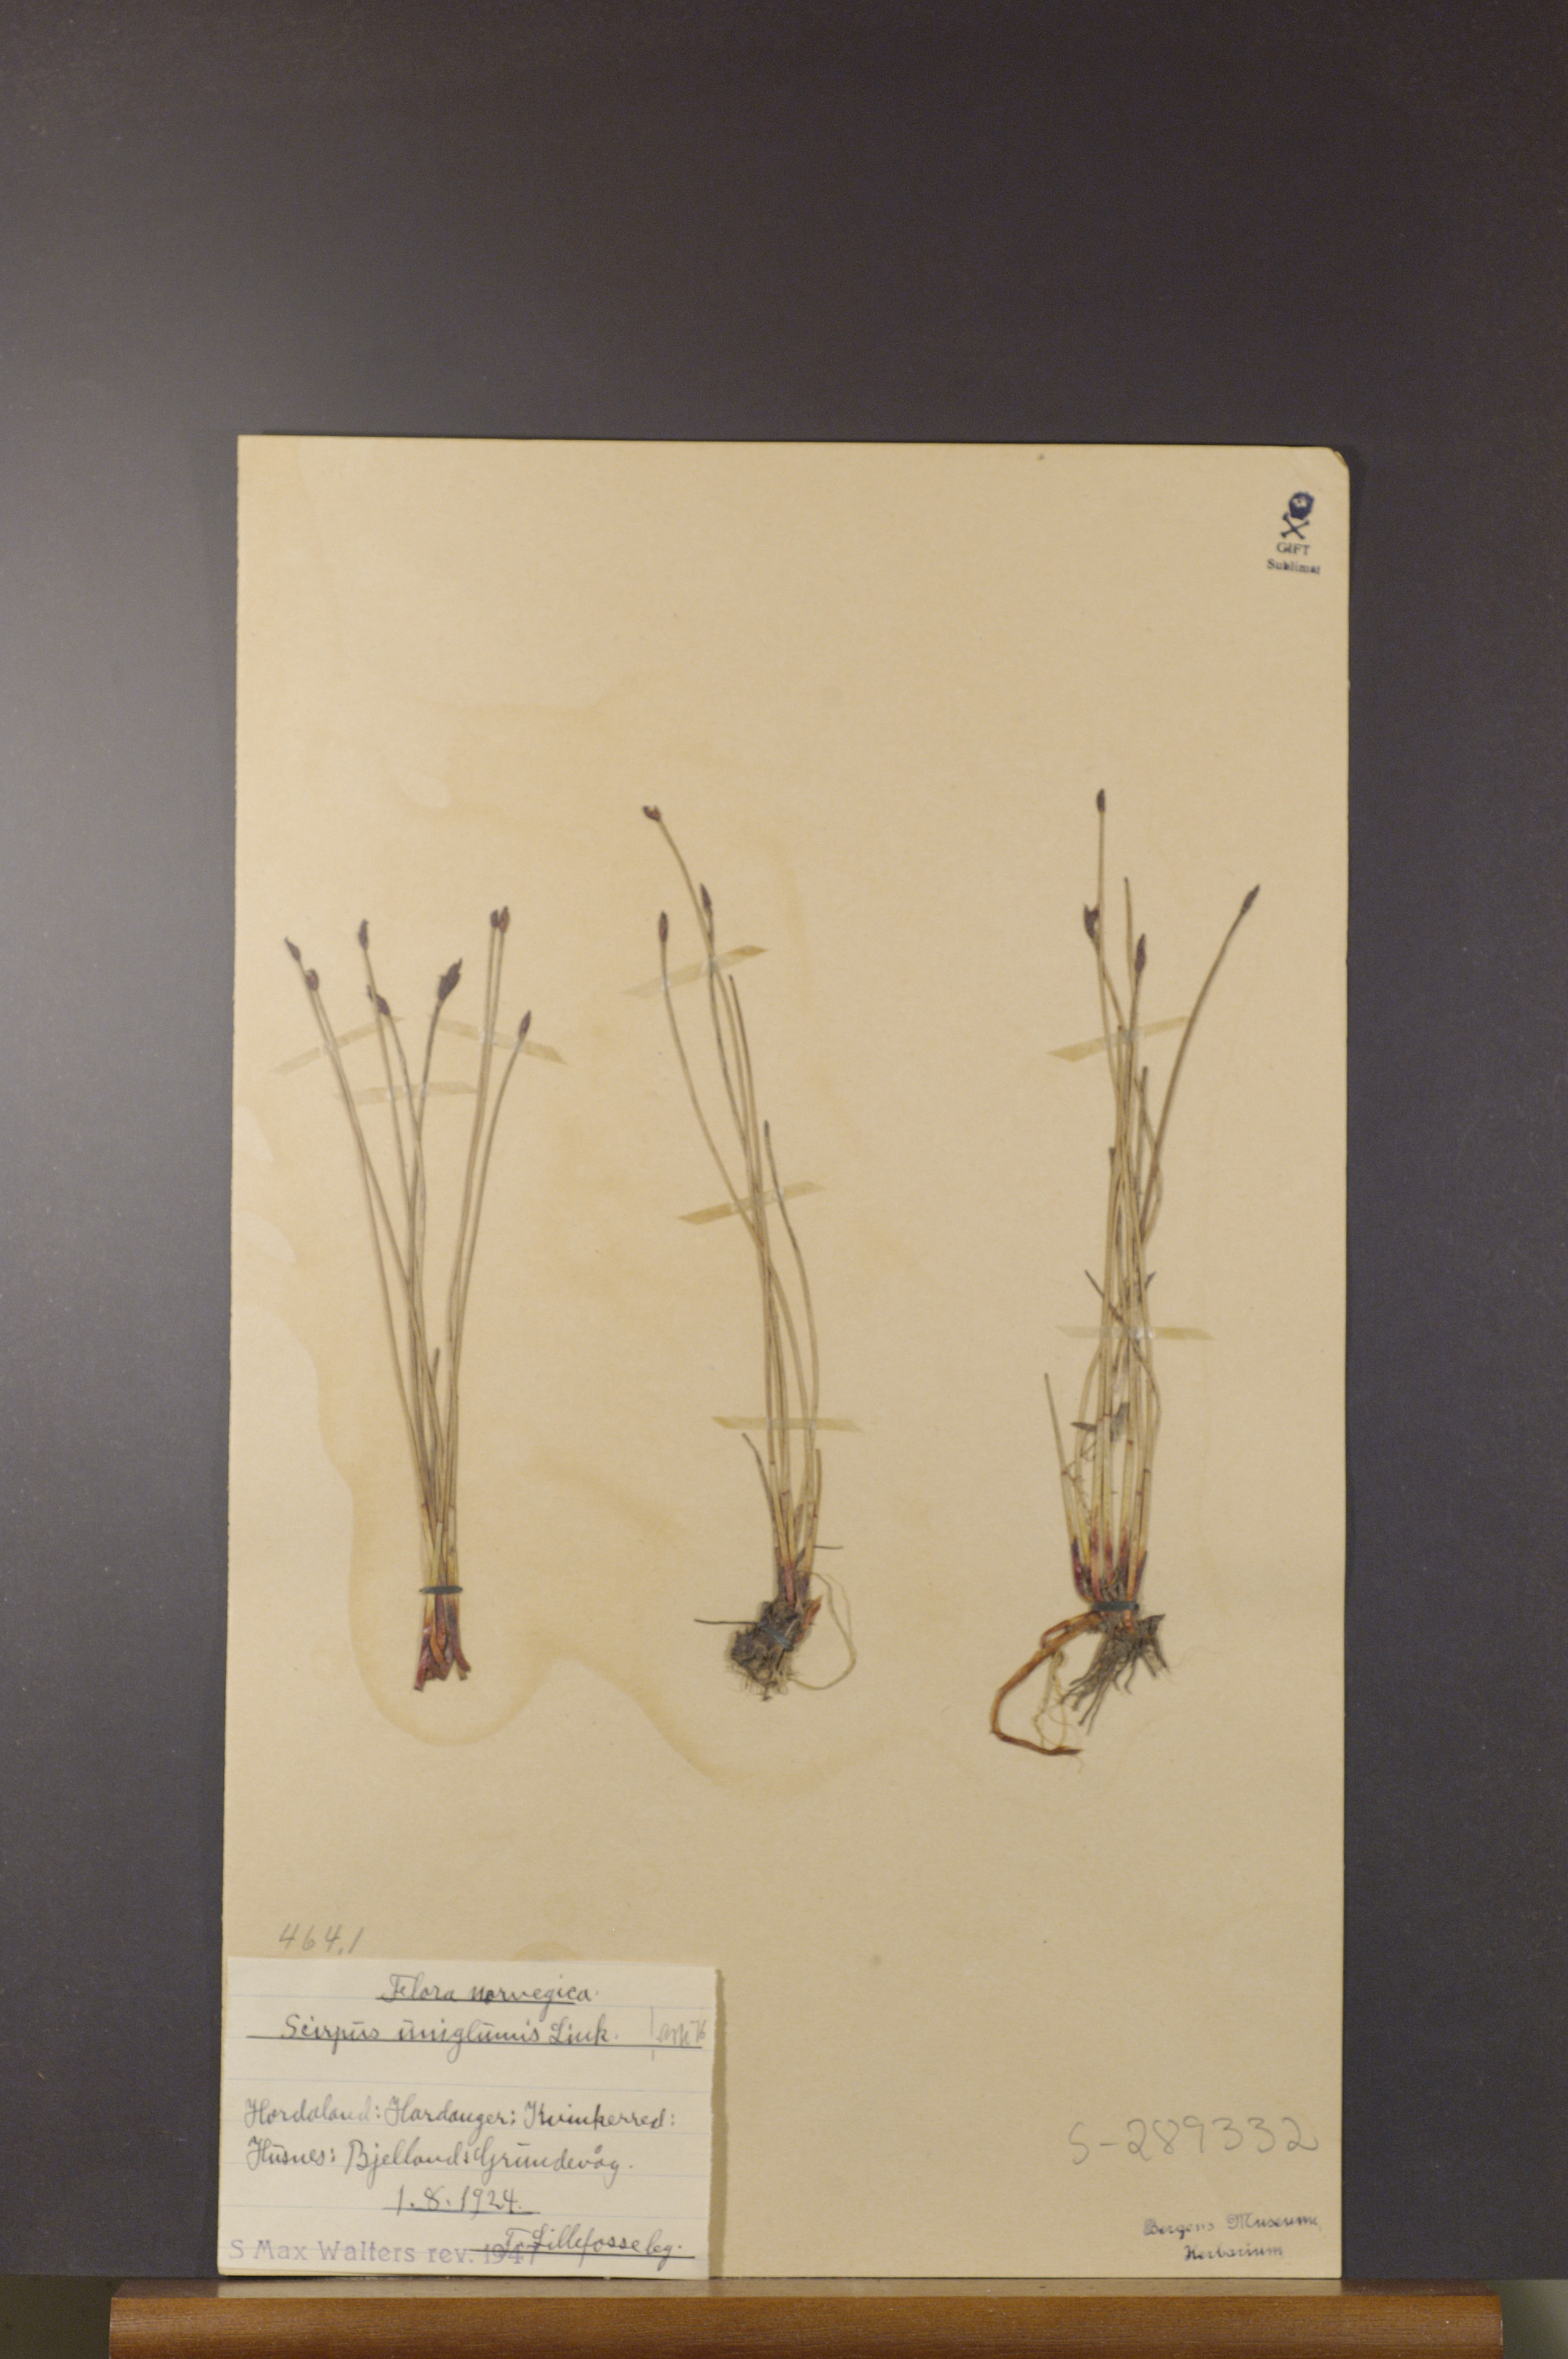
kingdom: Plantae
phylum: Tracheophyta
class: Liliopsida
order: Poales
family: Cyperaceae
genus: Eleocharis
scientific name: Eleocharis uniglumis
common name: Slender spike-rush
